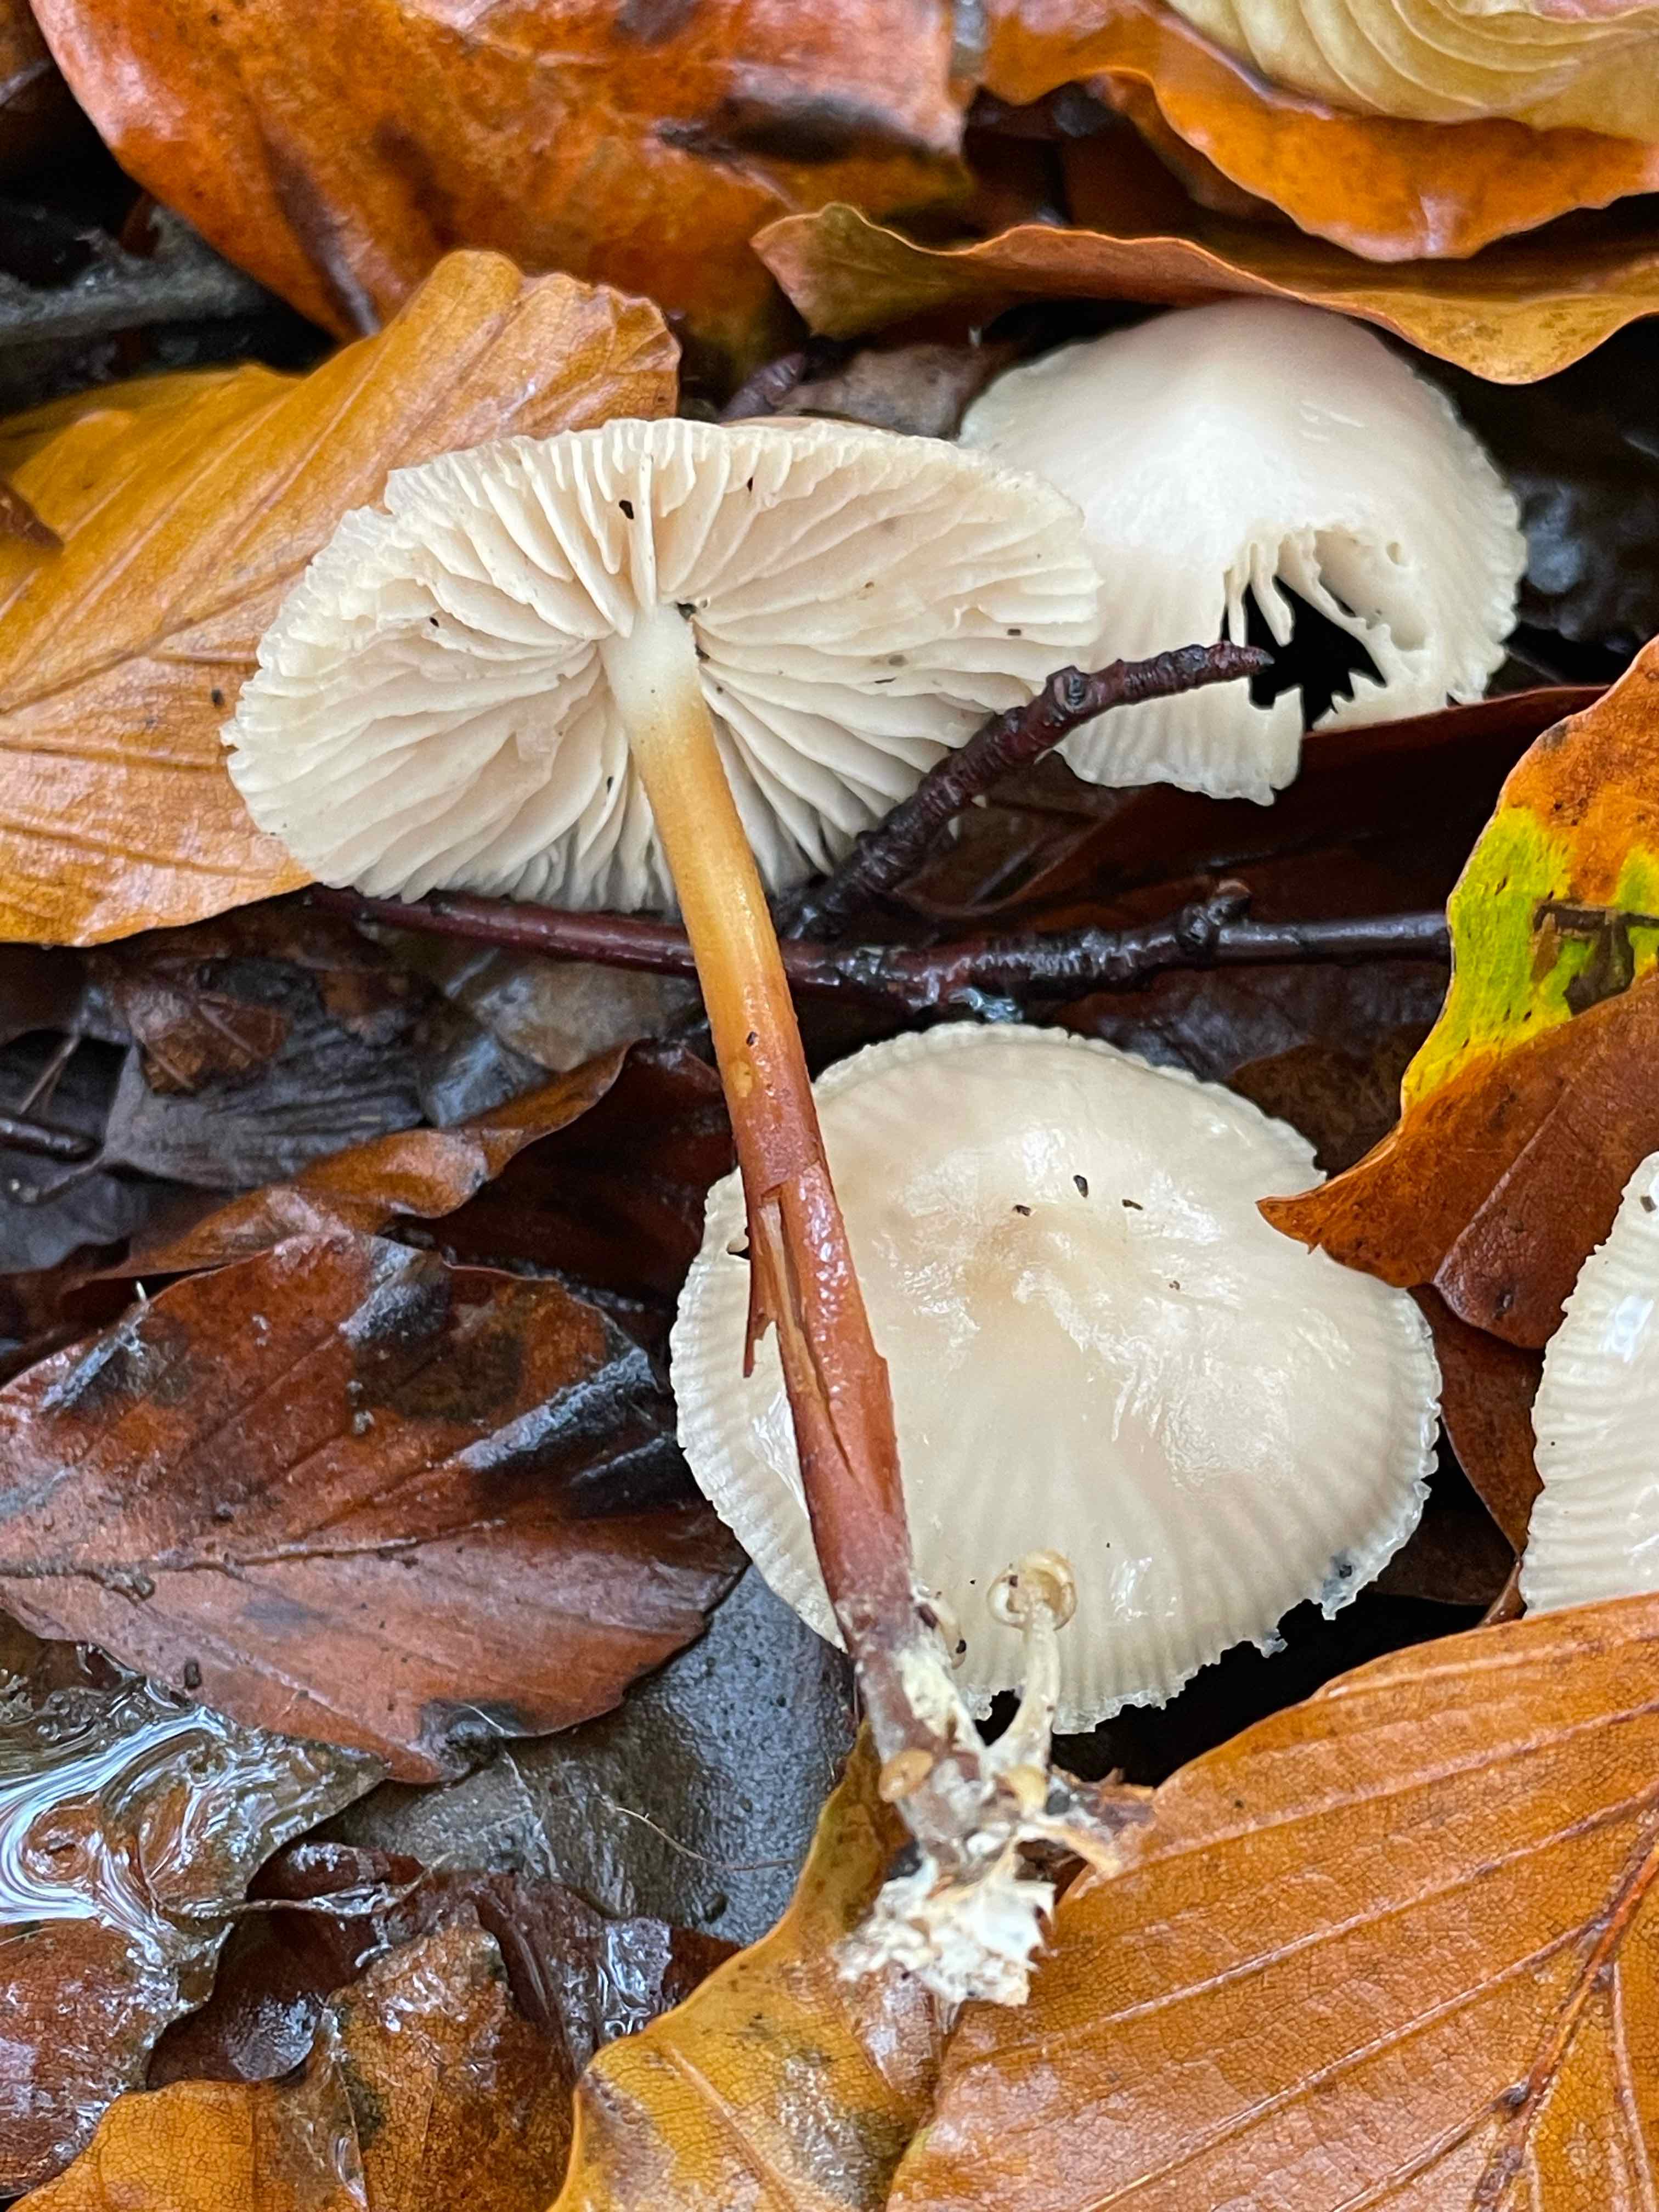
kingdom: Fungi
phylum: Basidiomycota
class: Agaricomycetes
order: Agaricales
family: Marasmiaceae
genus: Marasmius
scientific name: Marasmius wynneae
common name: hvælvet bruskhat
